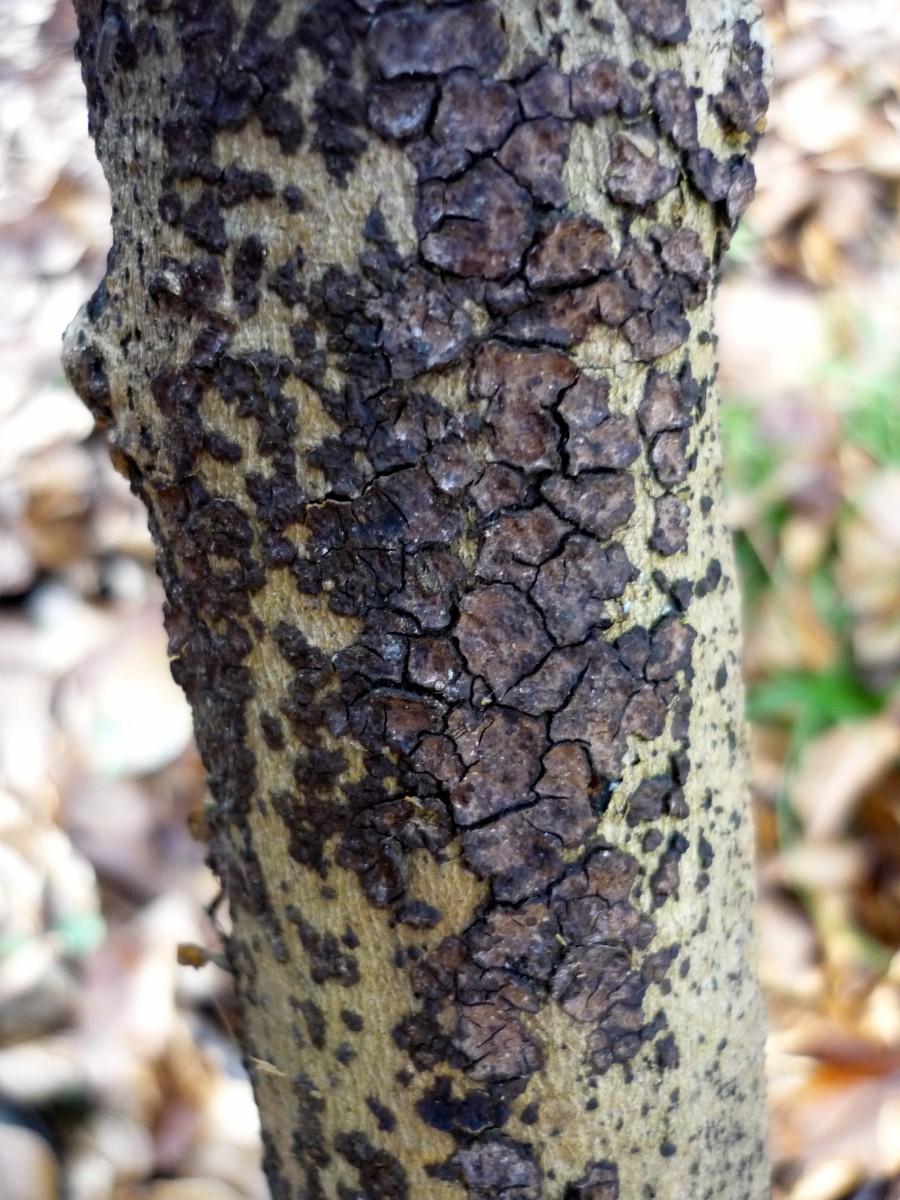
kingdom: Fungi
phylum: Basidiomycota
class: Agaricomycetes
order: Russulales
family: Peniophoraceae
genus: Peniophora
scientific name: Peniophora limitata
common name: mørkrandet voksskind
